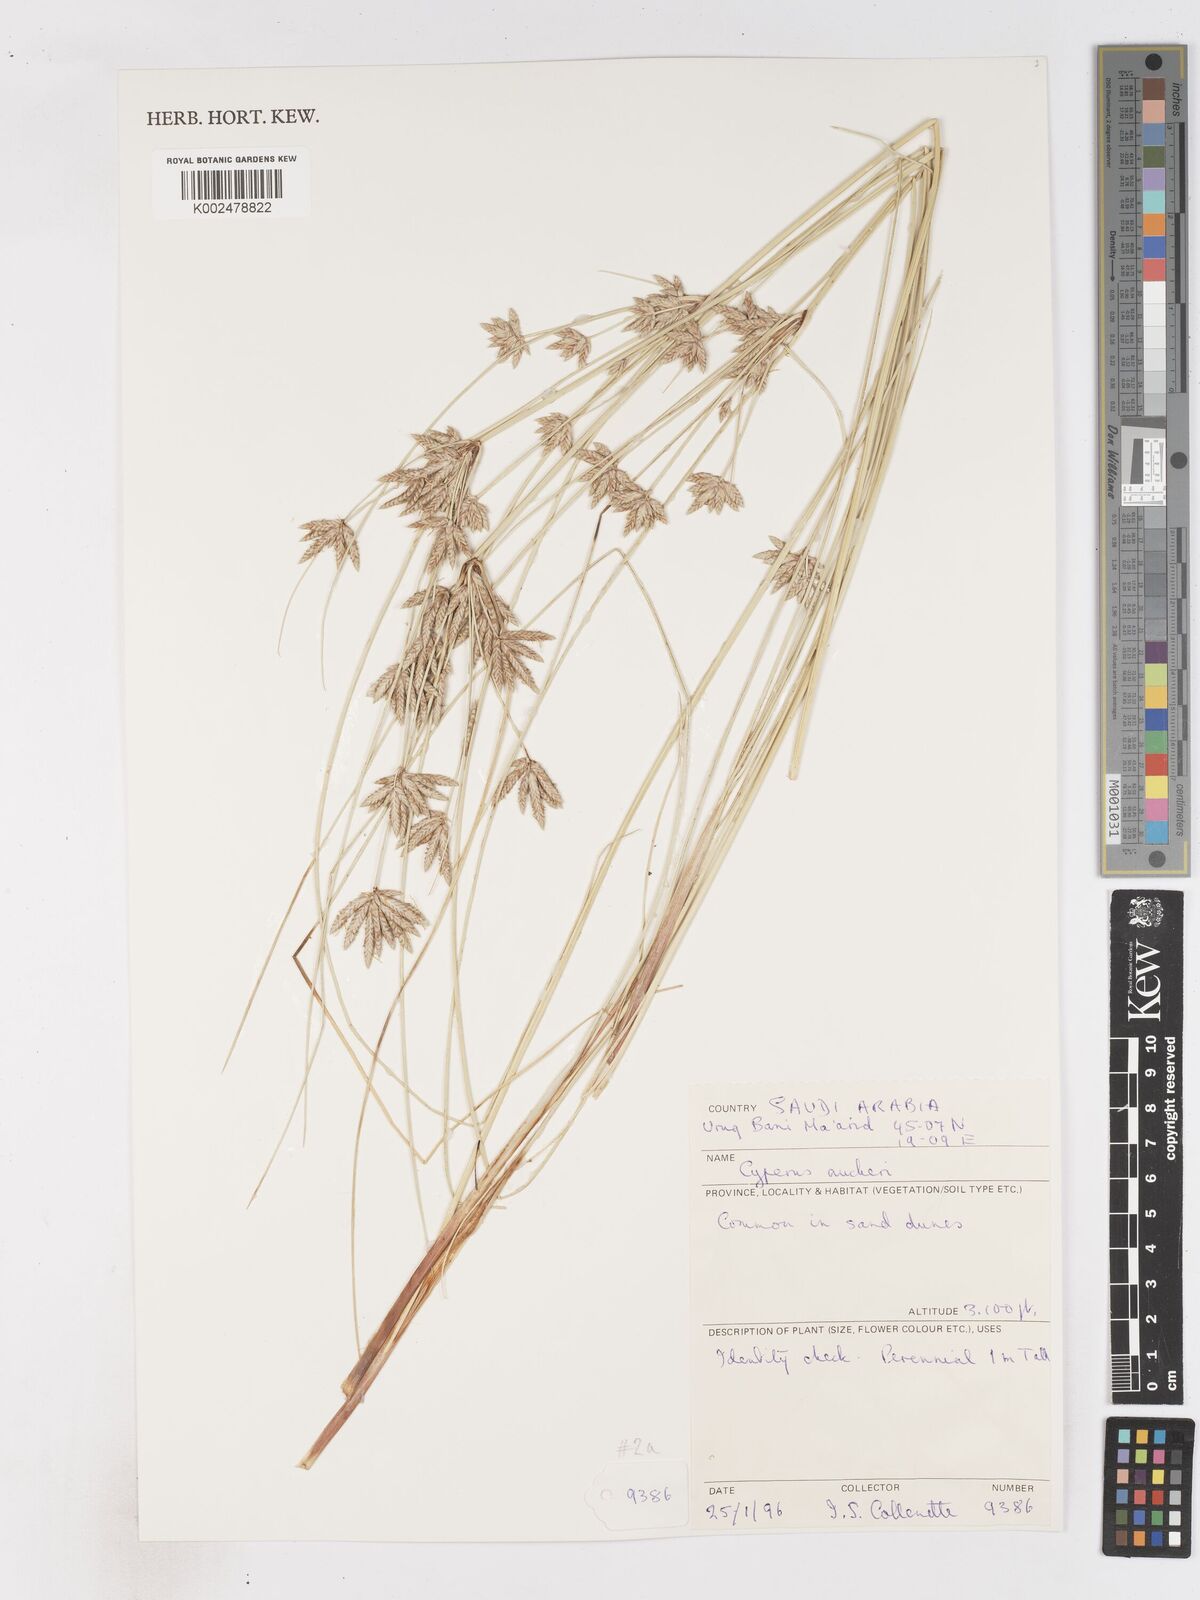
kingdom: Plantae
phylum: Tracheophyta
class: Liliopsida
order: Poales
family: Cyperaceae
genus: Cyperus
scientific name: Cyperus aucheri
